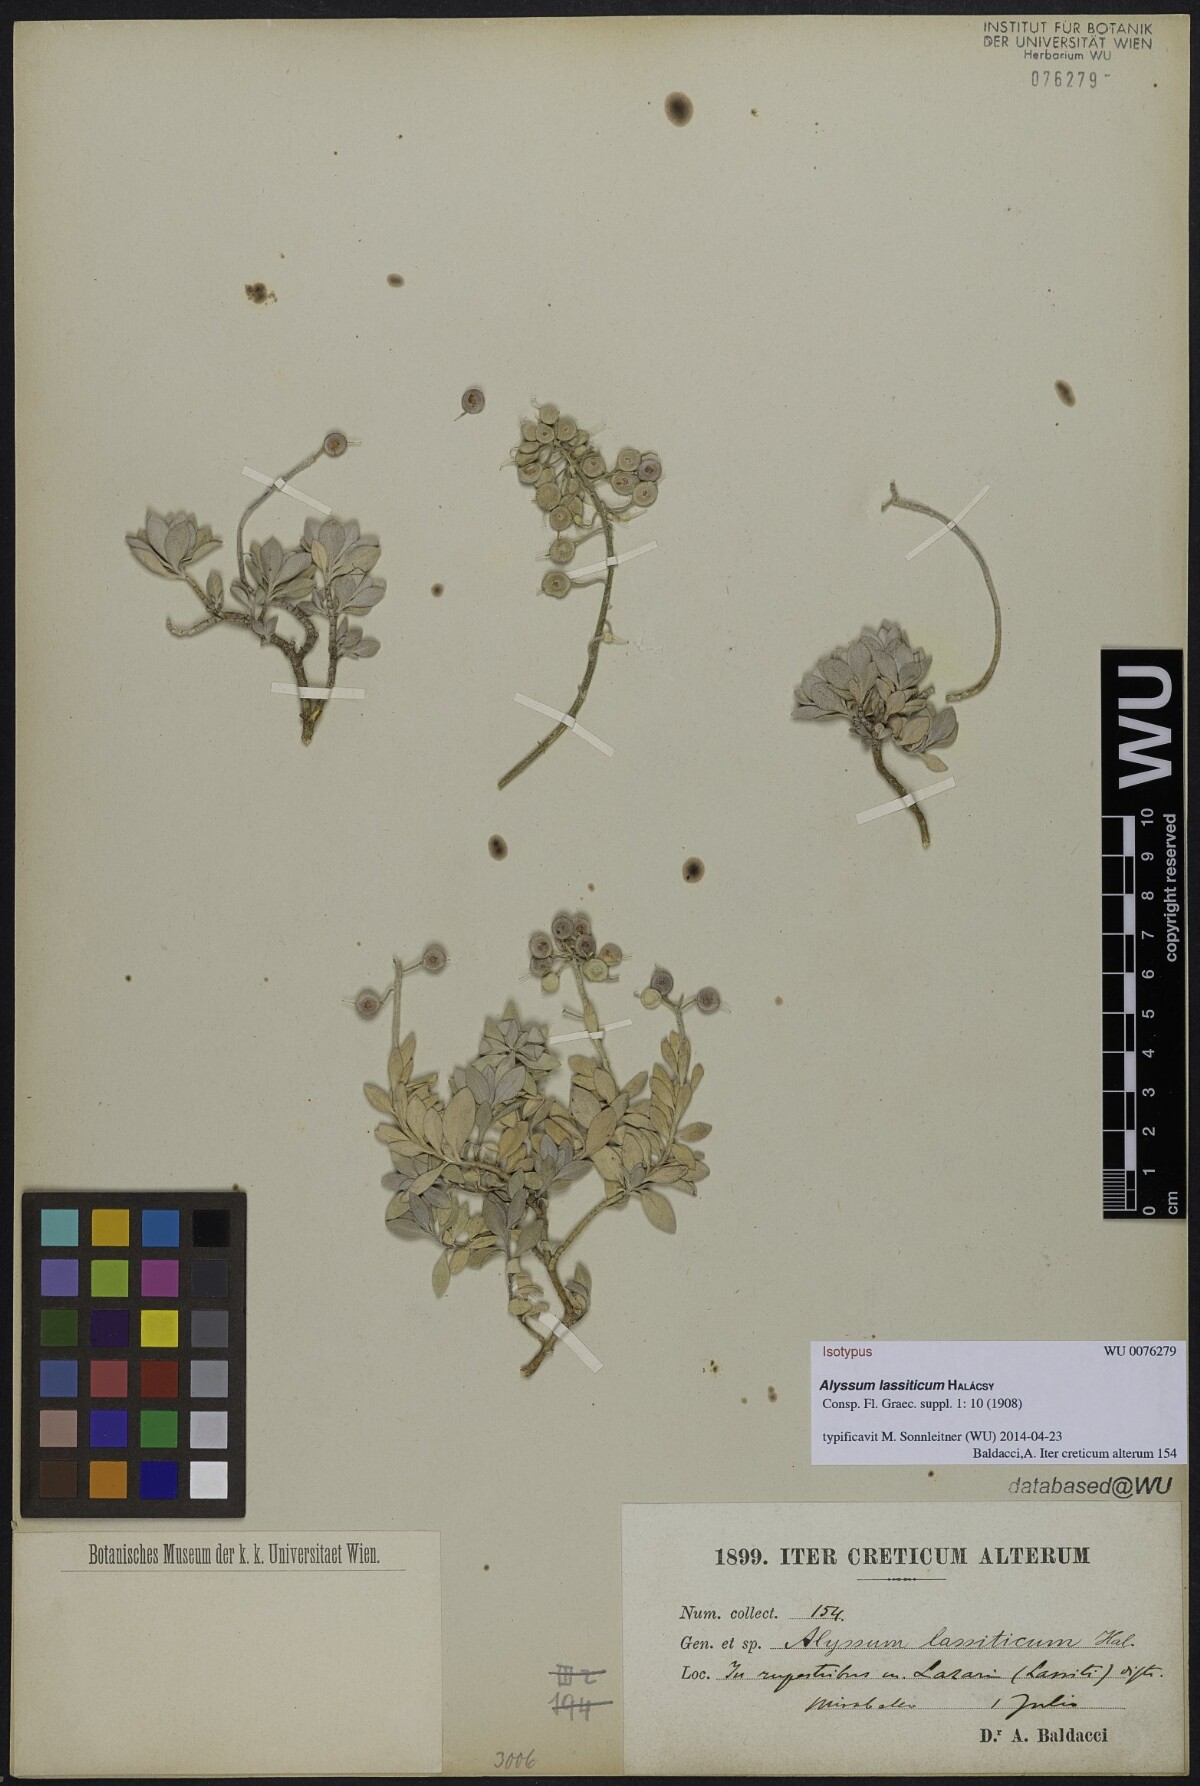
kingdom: Plantae
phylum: Tracheophyta
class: Magnoliopsida
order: Brassicales
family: Brassicaceae
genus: Alyssum
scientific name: Alyssum lassiticum
